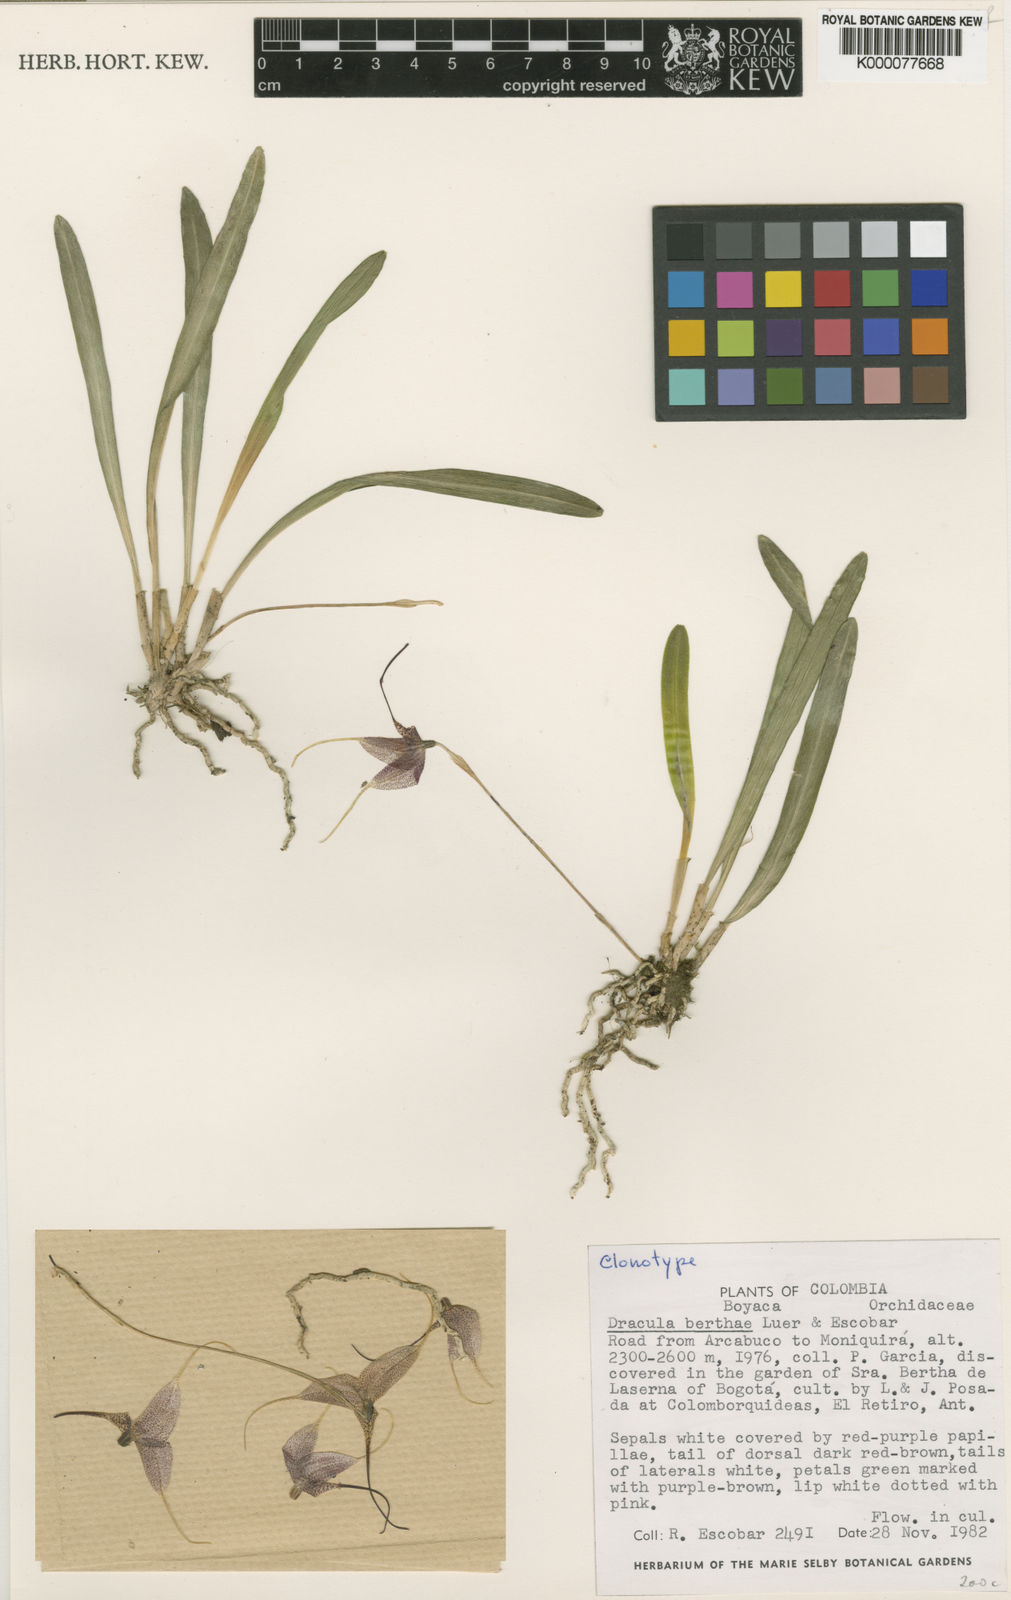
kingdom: Plantae
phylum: Tracheophyta
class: Liliopsida
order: Asparagales
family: Orchidaceae
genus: Dracula
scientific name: Dracula berthae
